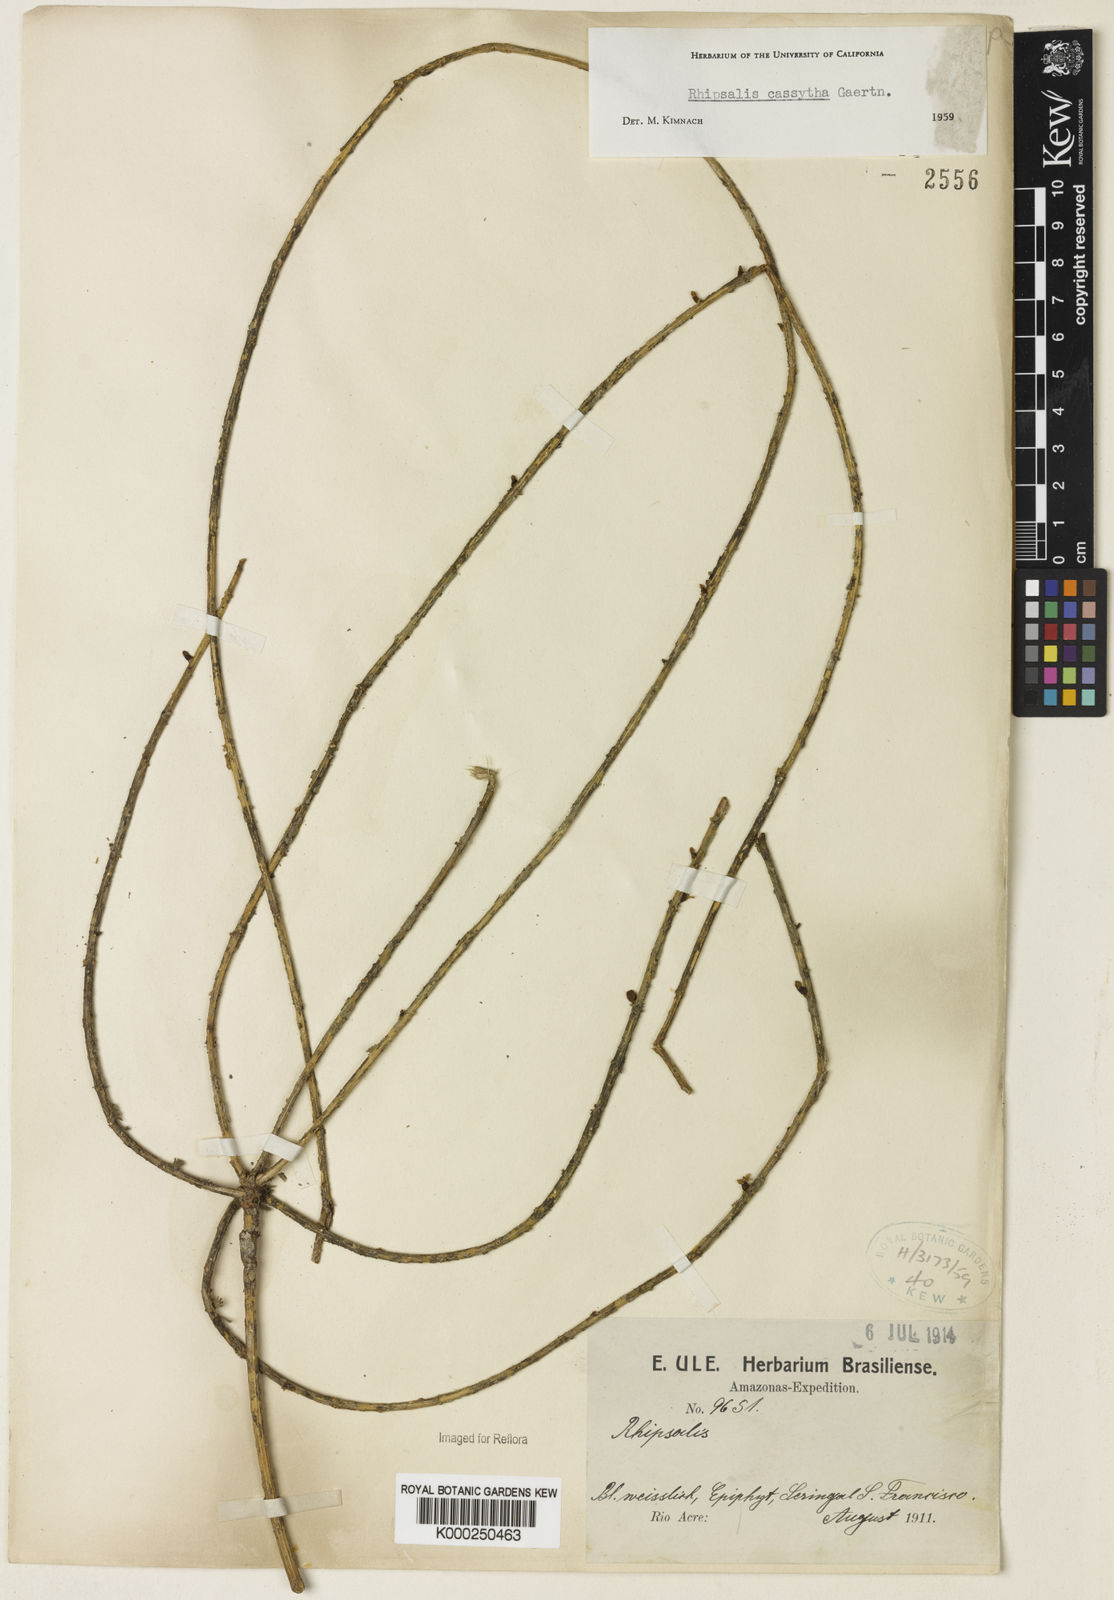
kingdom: Plantae
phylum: Tracheophyta
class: Magnoliopsida
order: Caryophyllales
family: Cactaceae
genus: Rhipsalis
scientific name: Rhipsalis baccifera
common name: Mistletoe cactus
